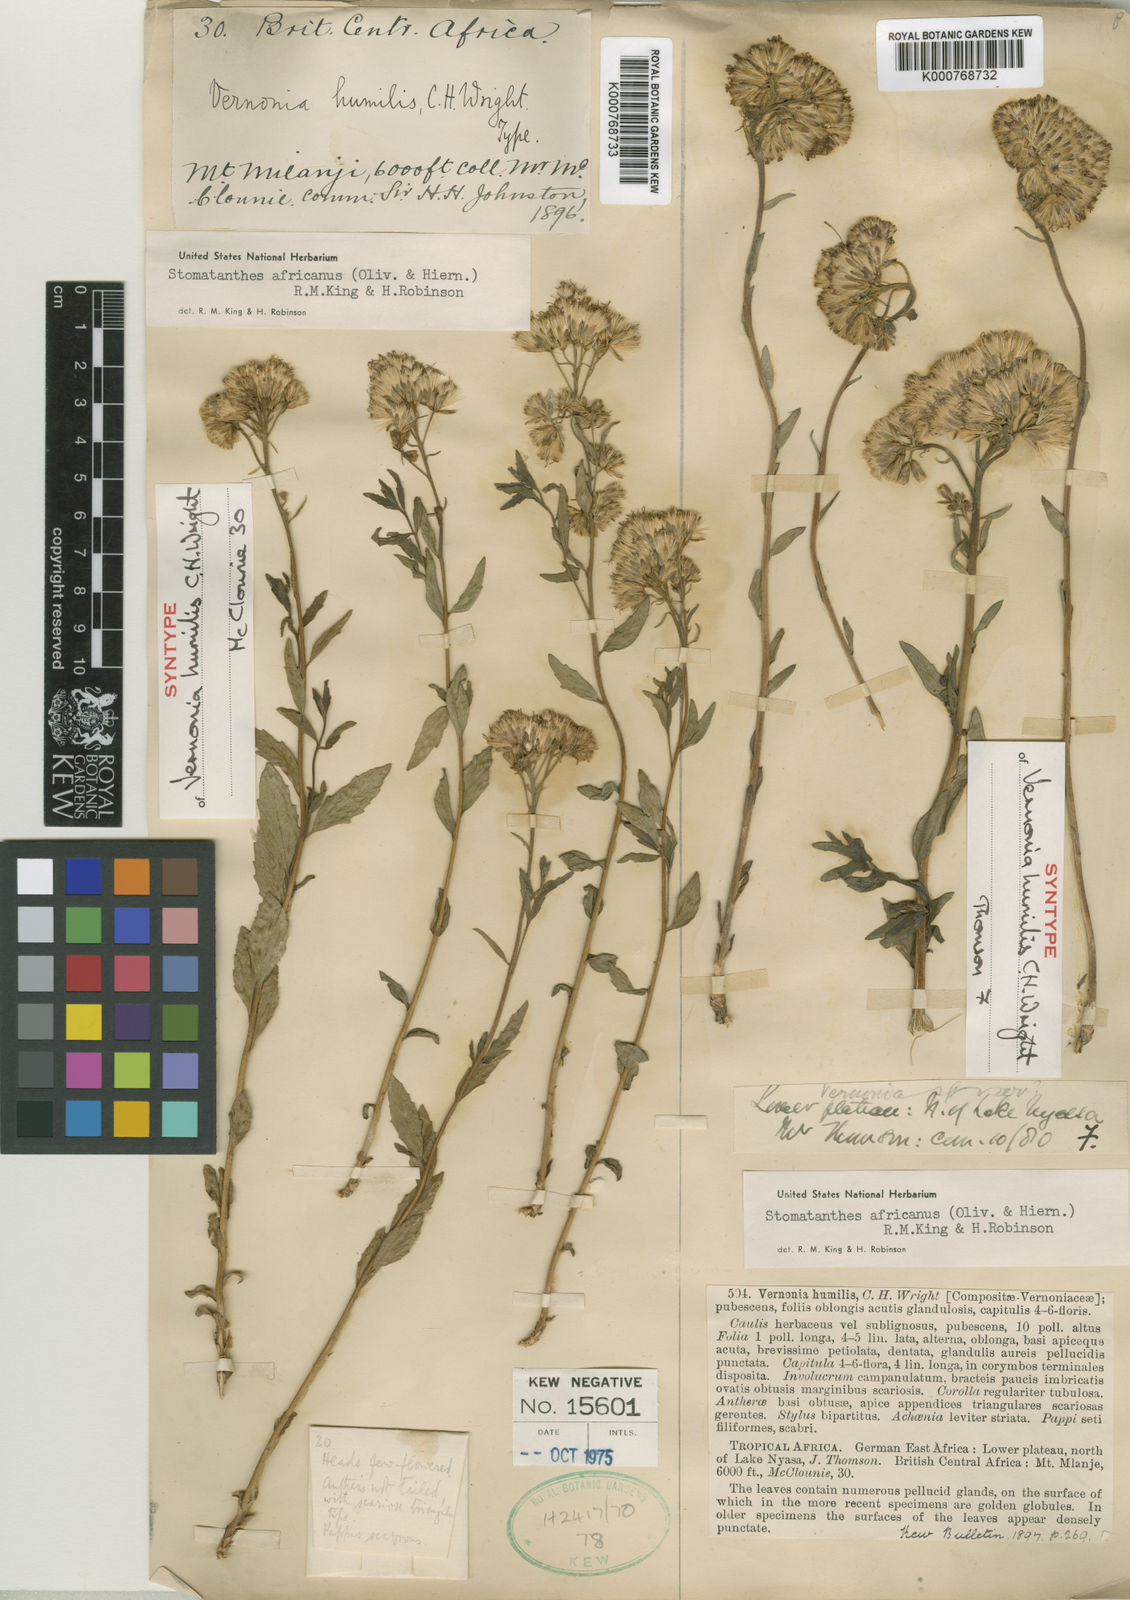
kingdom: Plantae
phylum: Tracheophyta
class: Magnoliopsida
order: Asterales
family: Asteraceae
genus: Stomatanthes
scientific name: Stomatanthes africanus
